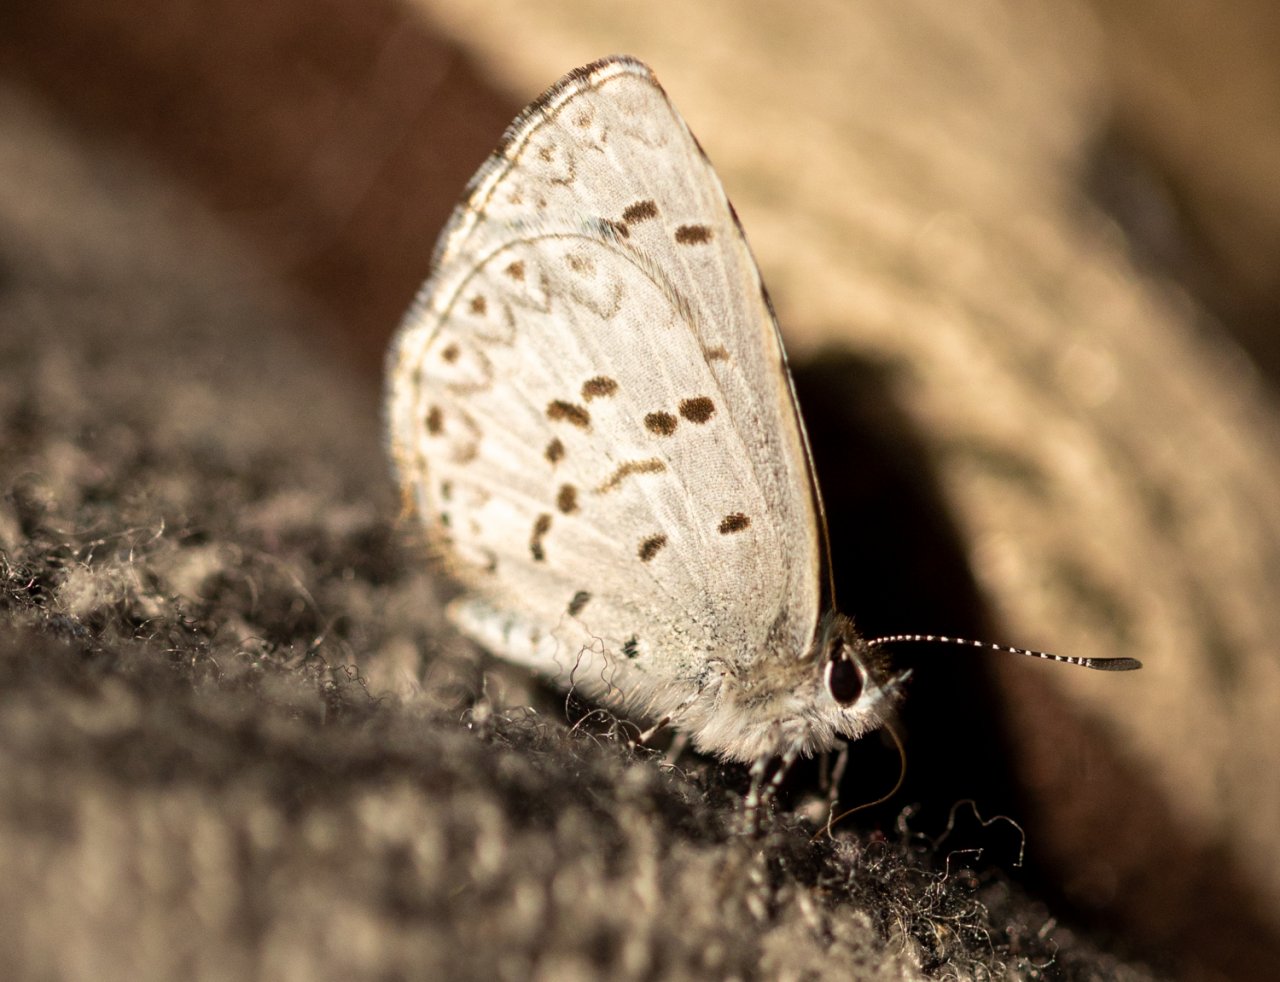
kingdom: Animalia
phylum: Arthropoda
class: Insecta
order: Lepidoptera
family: Lycaenidae
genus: Celastrina
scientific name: Celastrina lucia
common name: Northern Spring Azure
